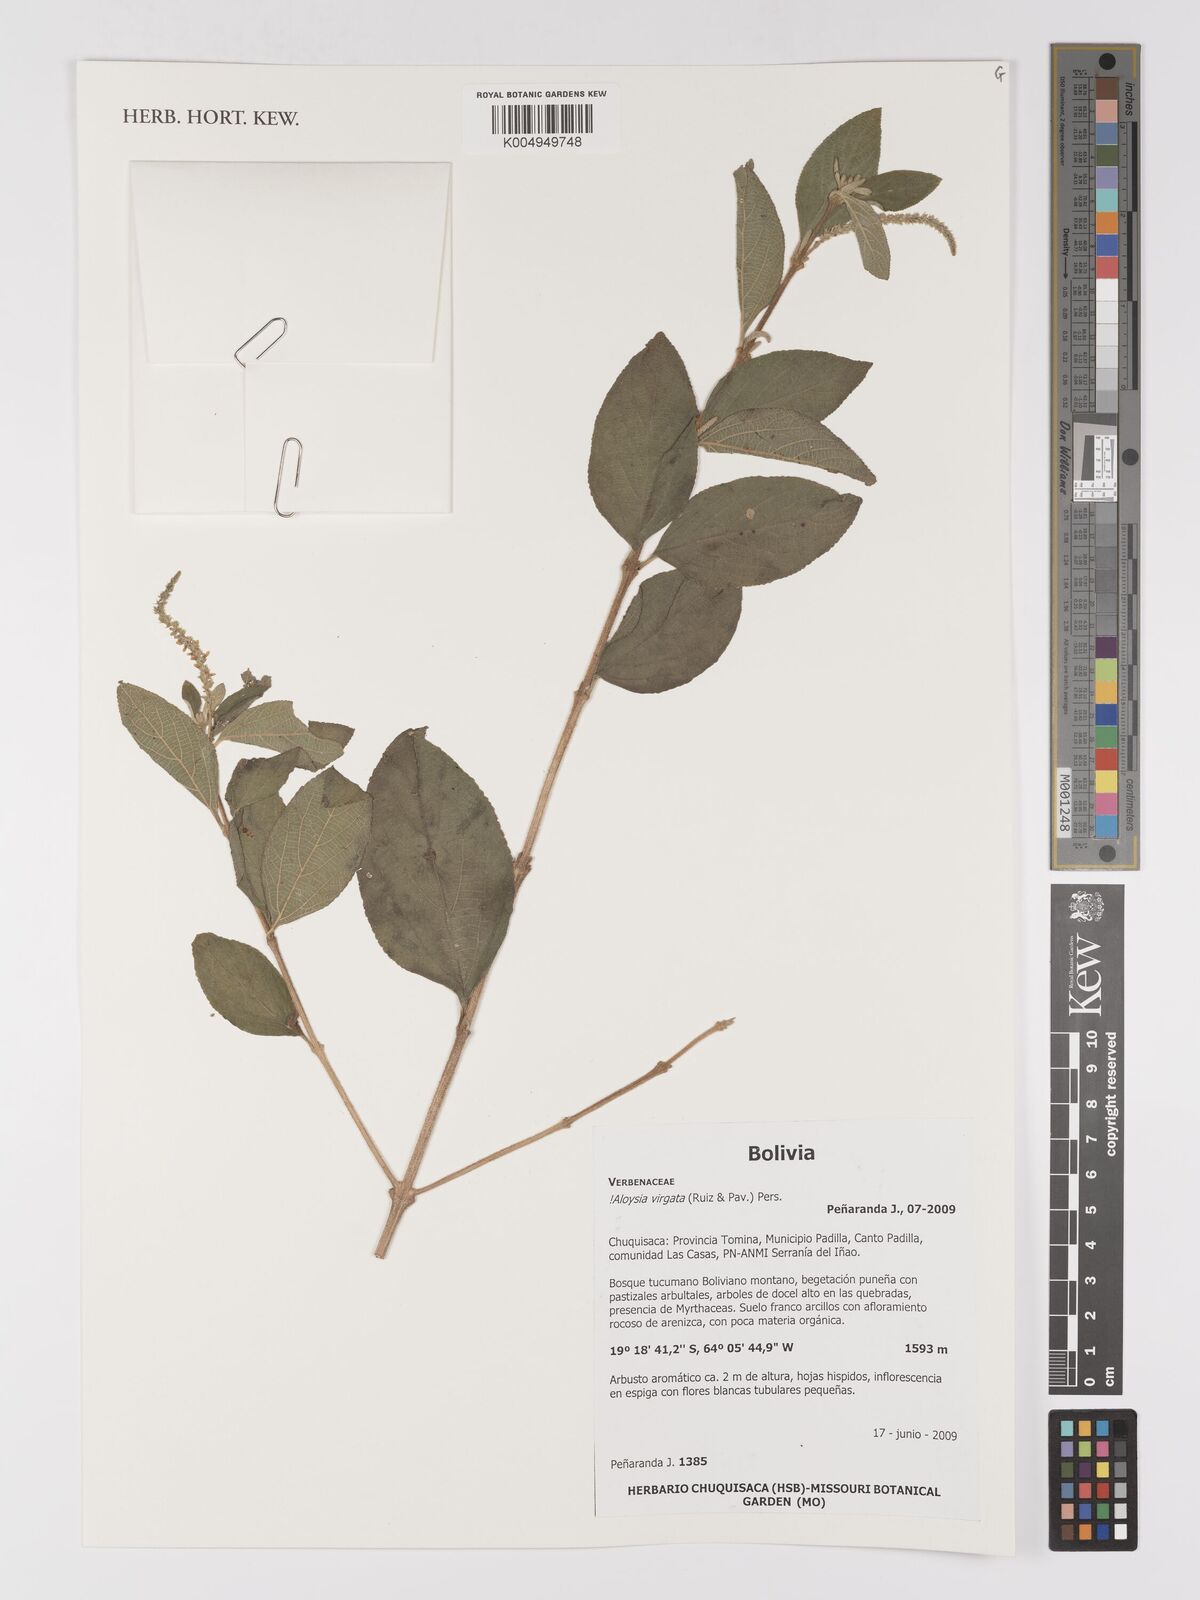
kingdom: Plantae
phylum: Tracheophyta
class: Magnoliopsida
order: Lamiales
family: Verbenaceae
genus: Aloysia
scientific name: Aloysia virgata
